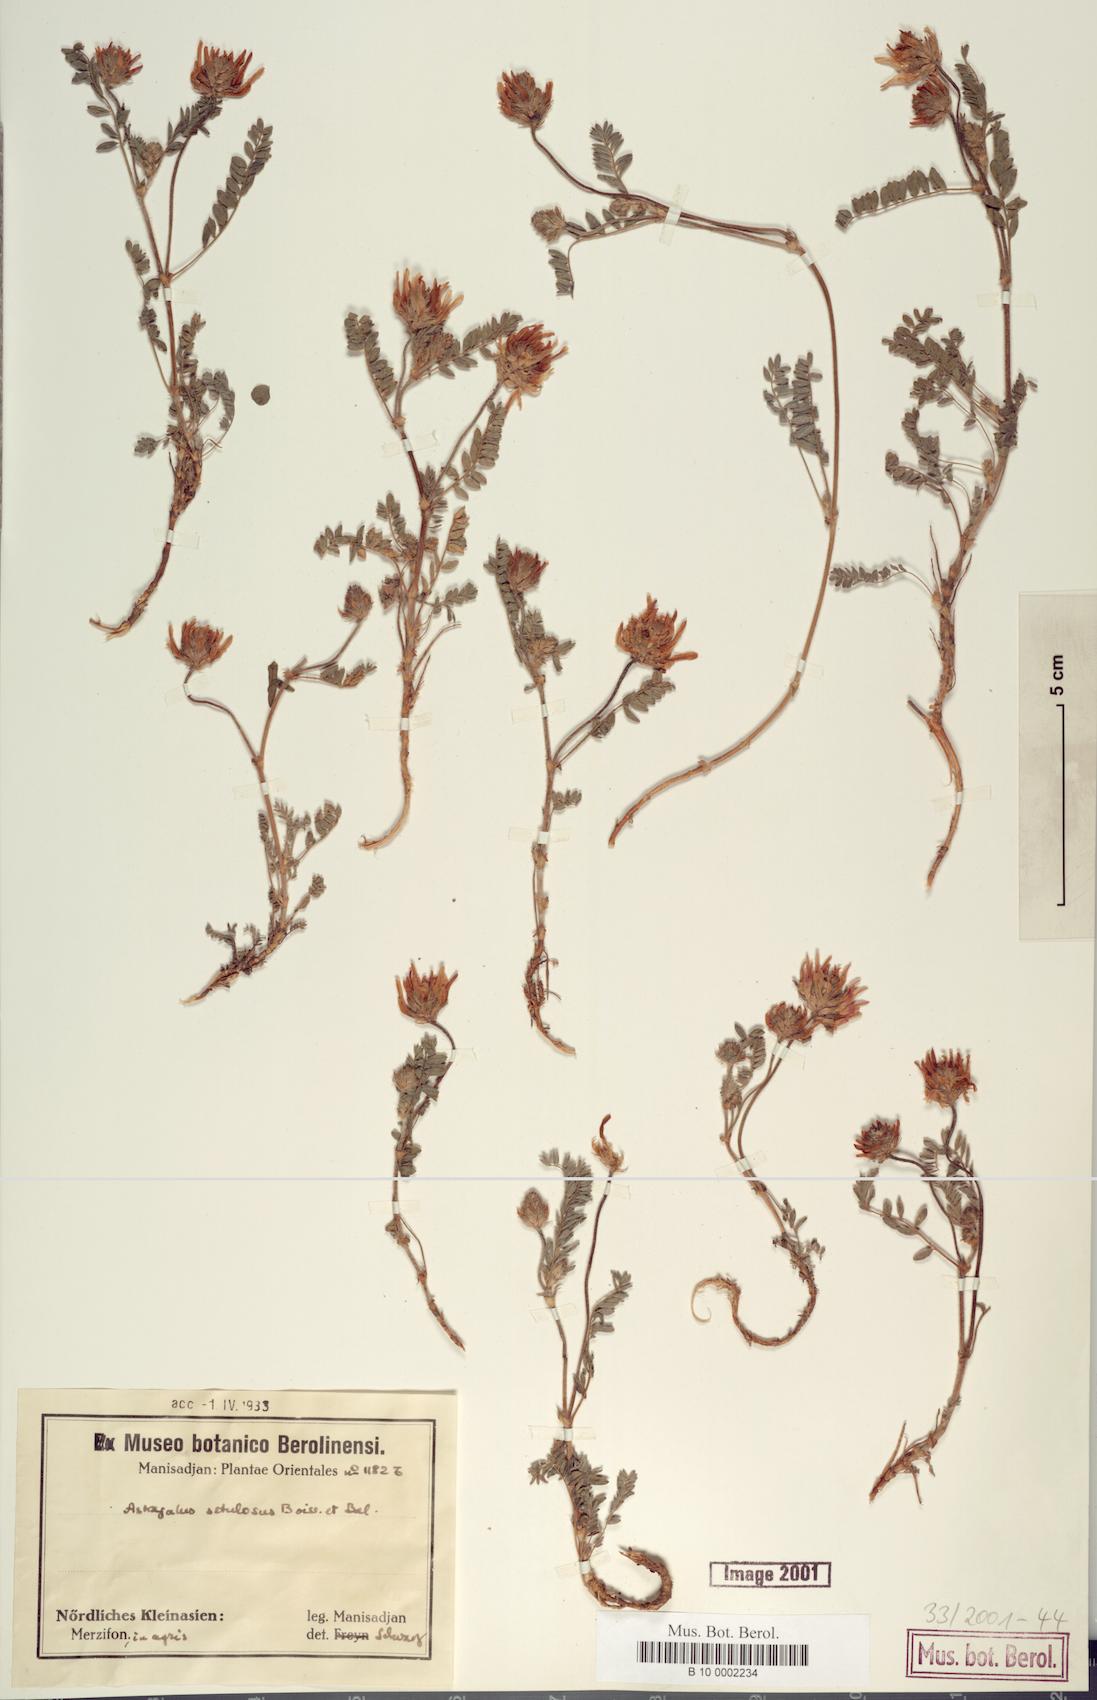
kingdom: Plantae
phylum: Tracheophyta
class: Magnoliopsida
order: Fabales
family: Fabaceae
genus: Astragalus
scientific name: Astragalus setulosus
